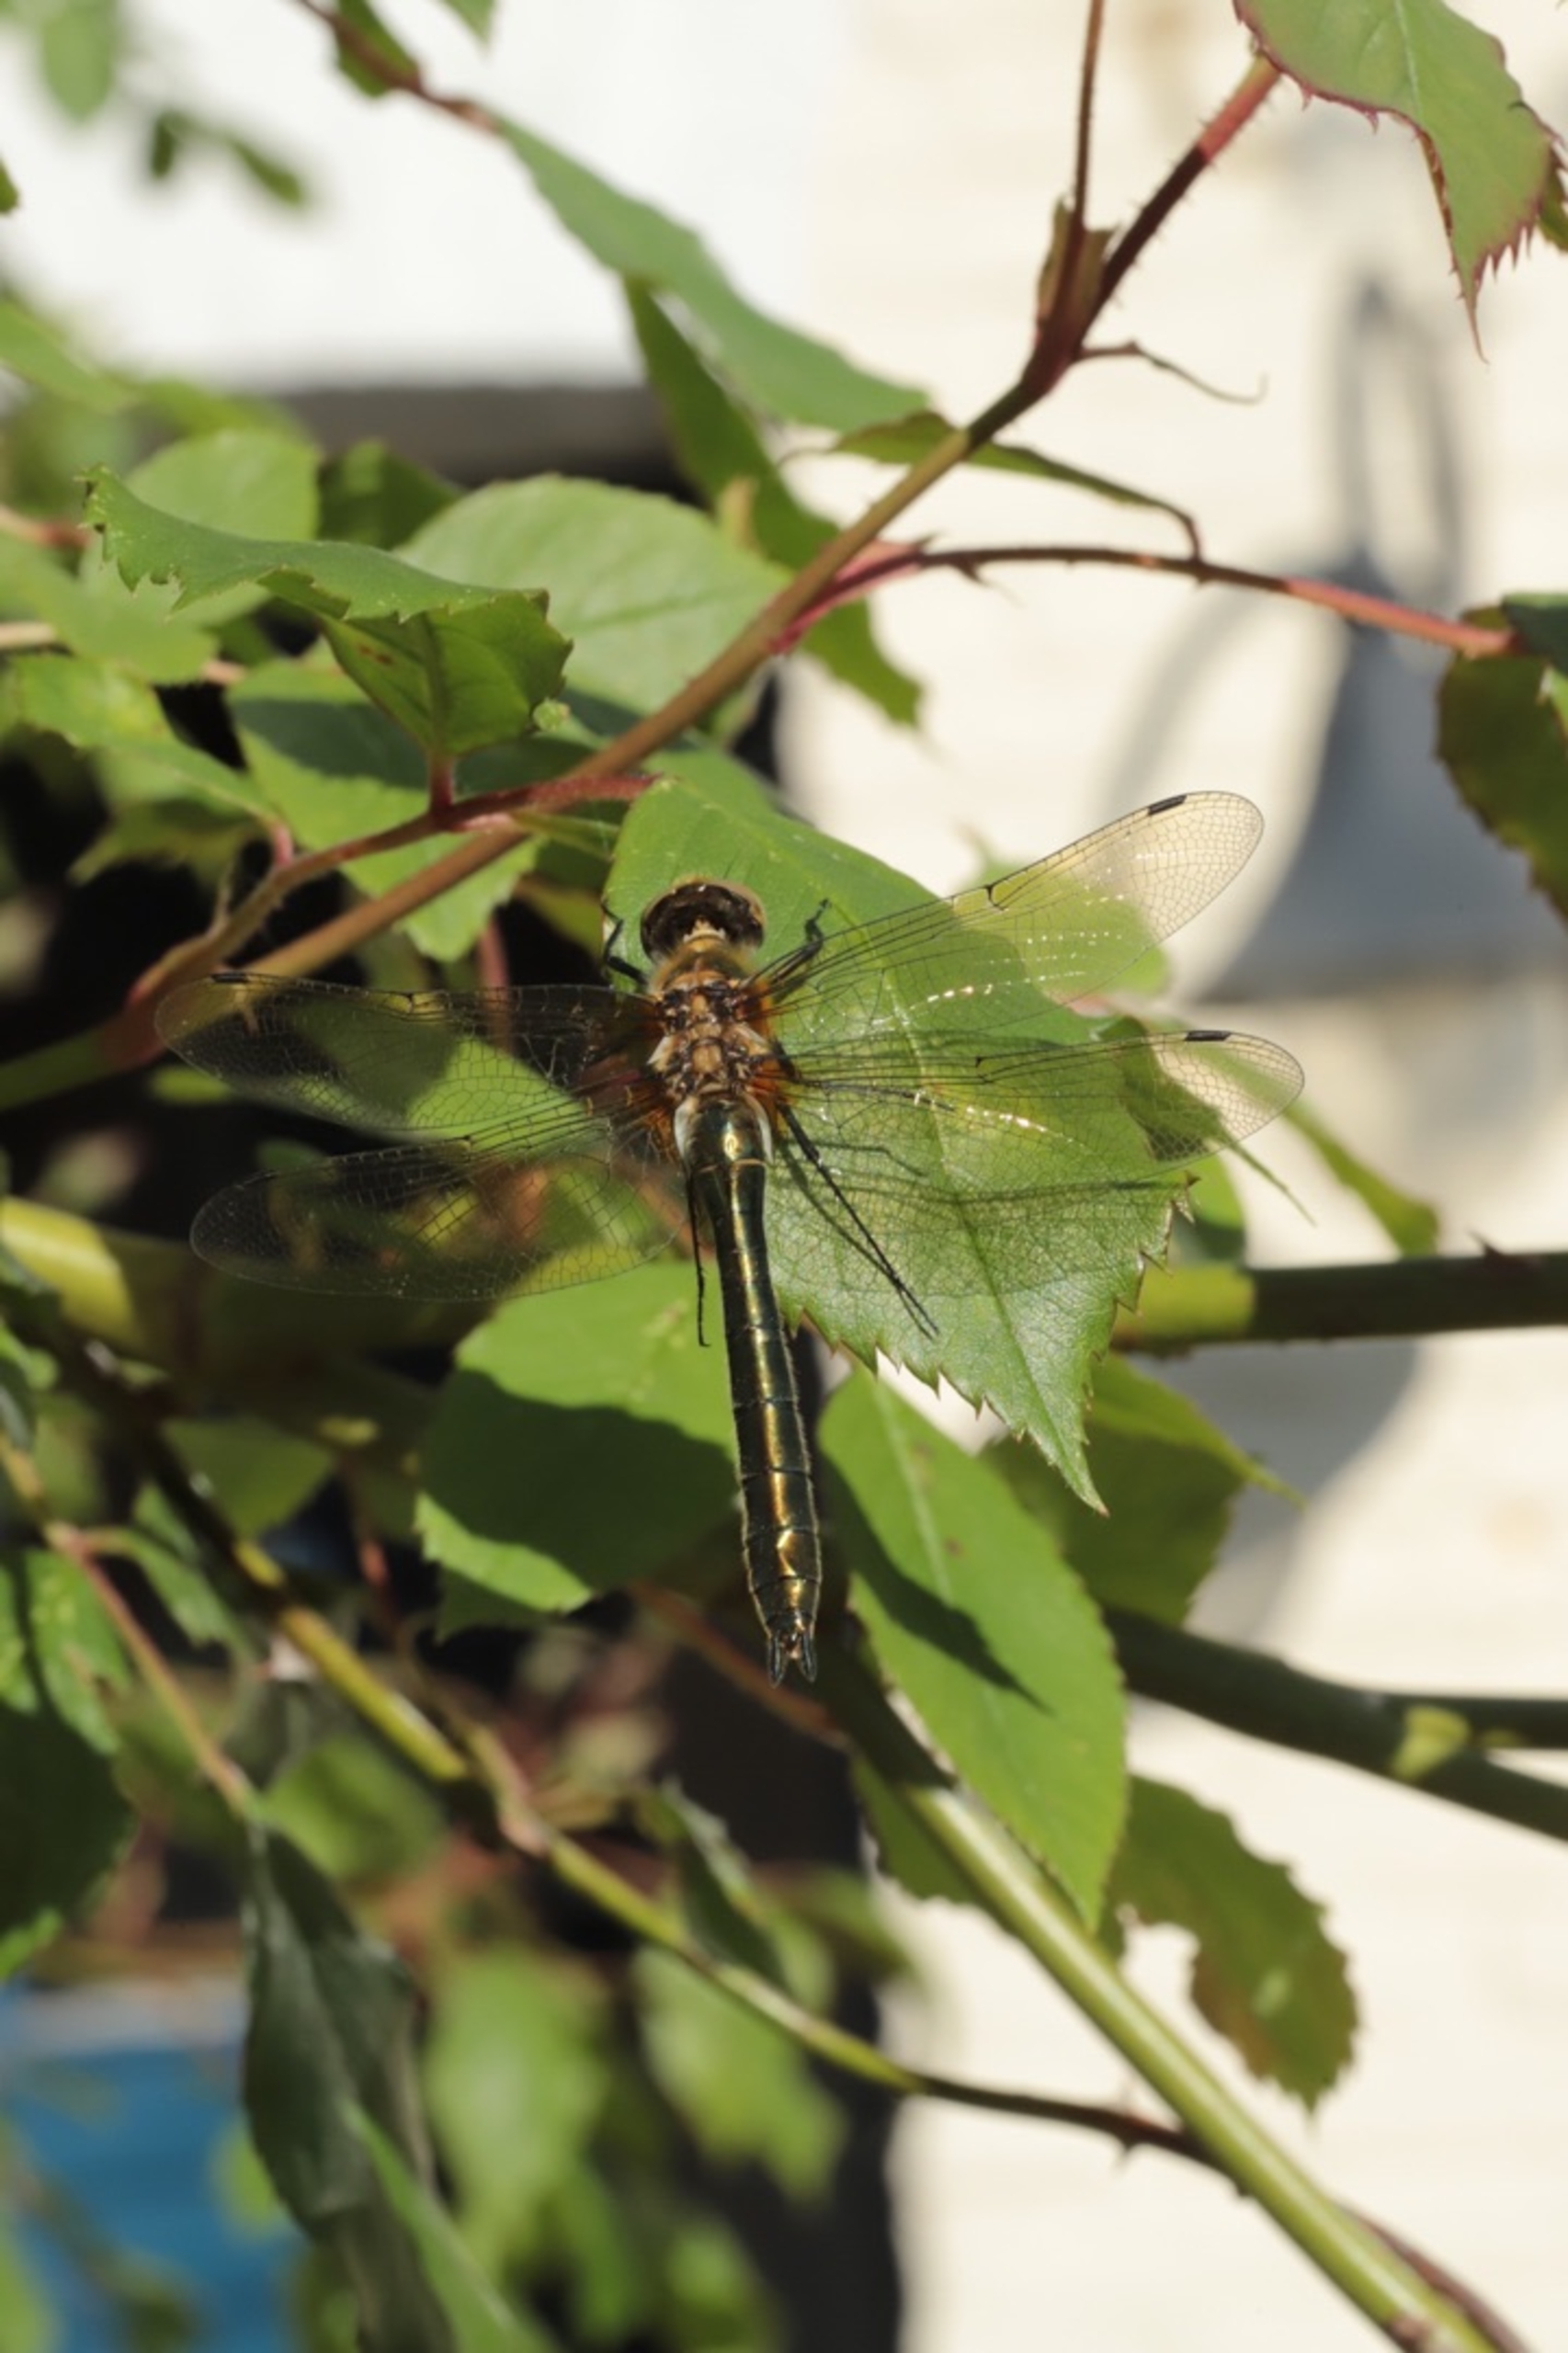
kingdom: Animalia
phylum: Arthropoda
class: Insecta
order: Odonata
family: Corduliidae
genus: Cordulia
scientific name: Cordulia aenea
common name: Grøn smaragdlibel
